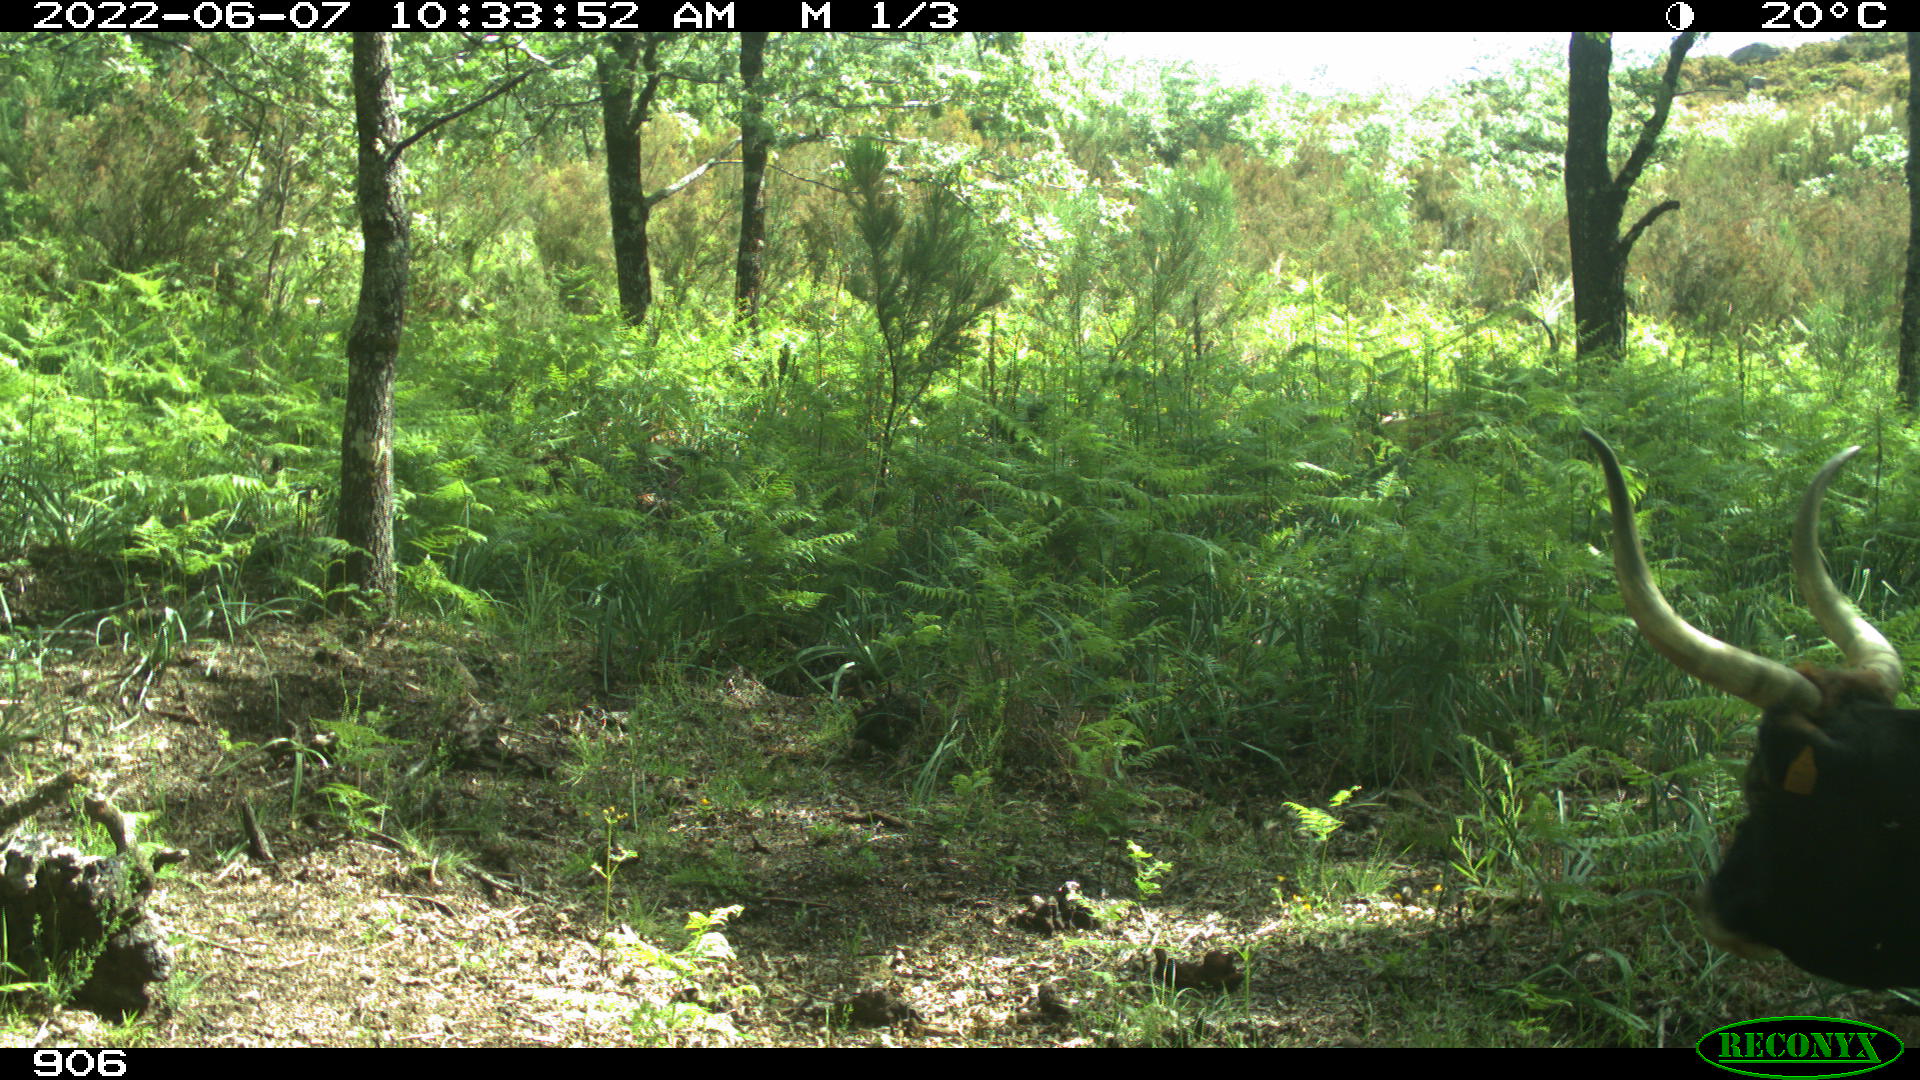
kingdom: Animalia
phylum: Chordata
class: Mammalia
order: Artiodactyla
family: Bovidae
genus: Bos
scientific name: Bos taurus
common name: Domesticated cattle
